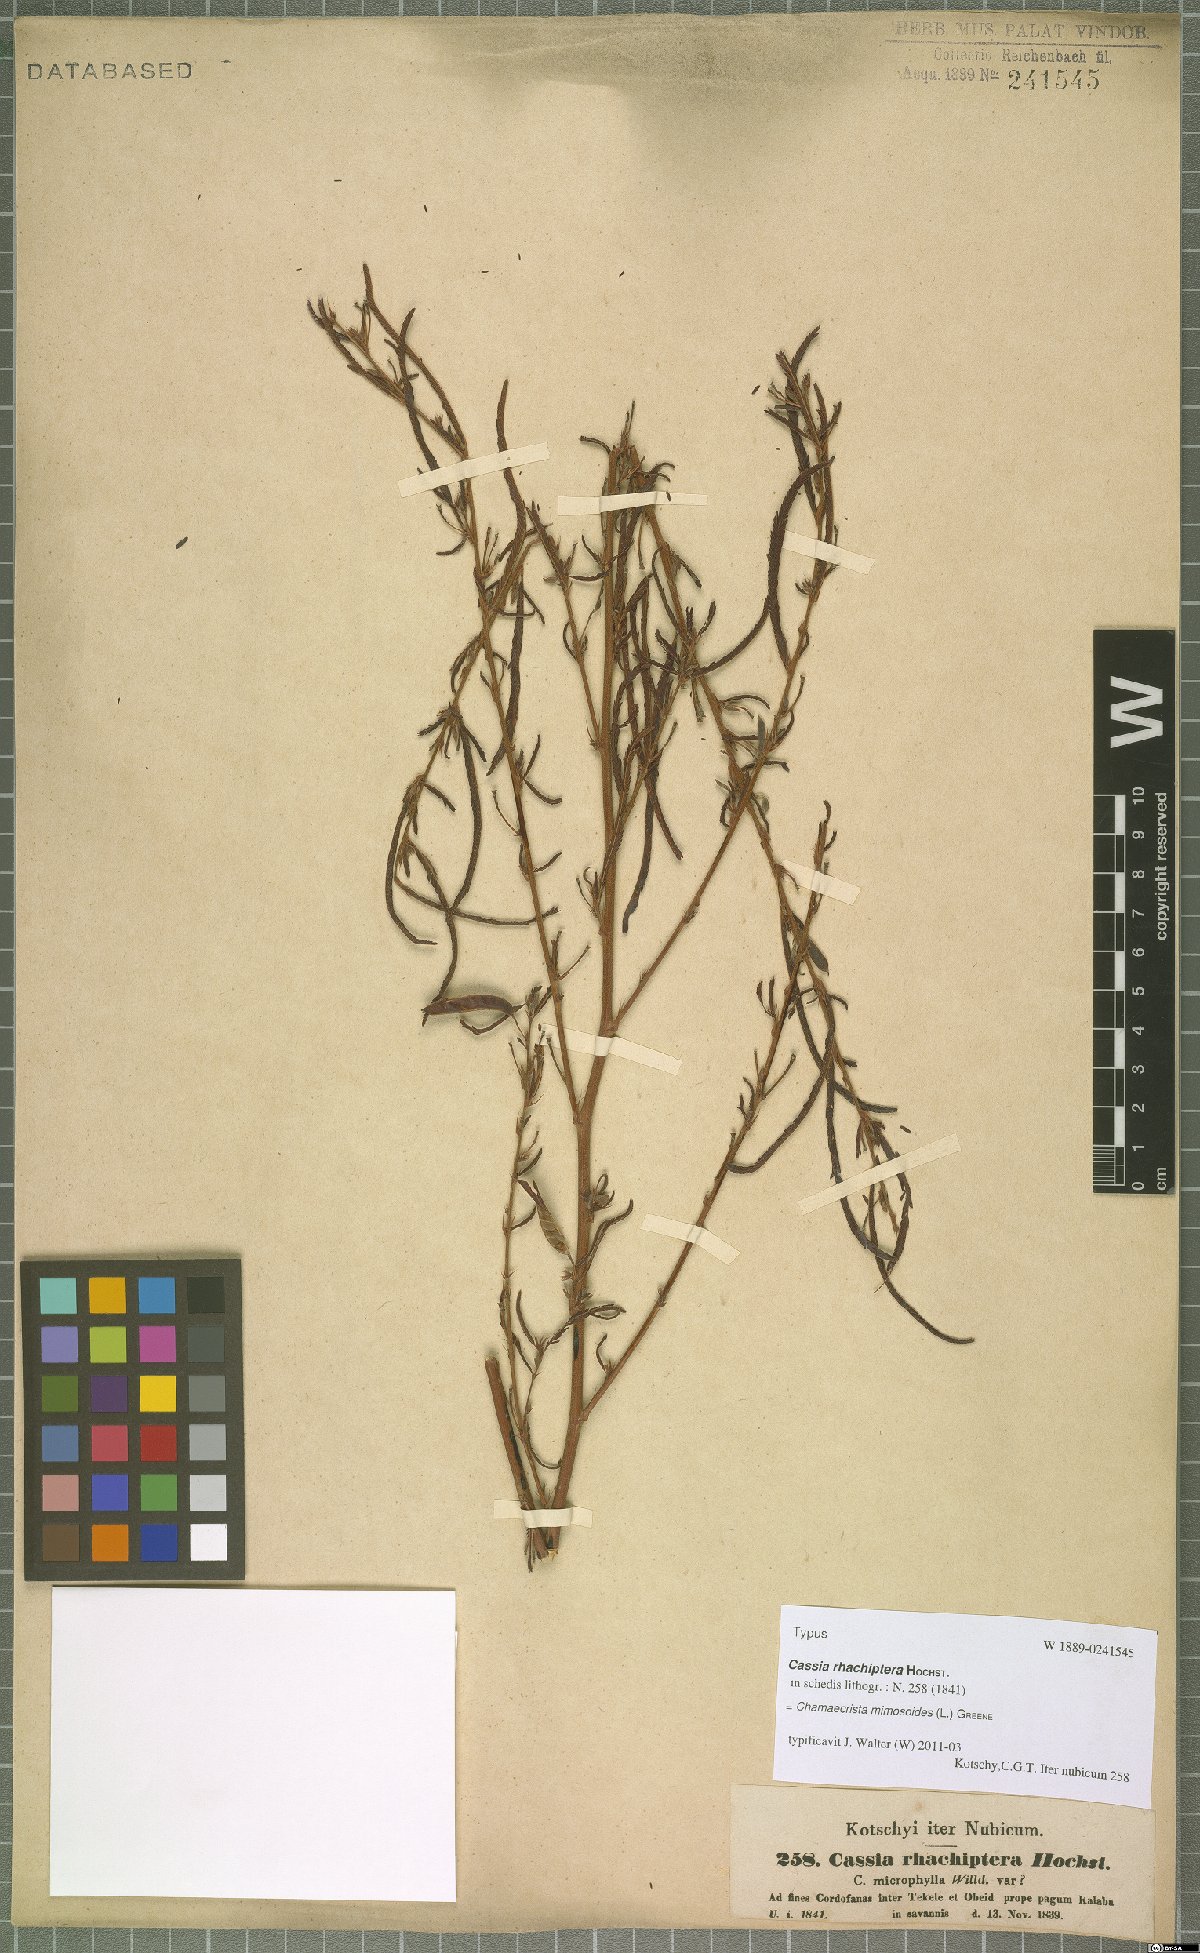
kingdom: Plantae
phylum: Tracheophyta
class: Magnoliopsida
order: Fabales
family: Fabaceae
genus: Chamaecrista
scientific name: Chamaecrista mimosoides
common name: Fish-bone cassia
